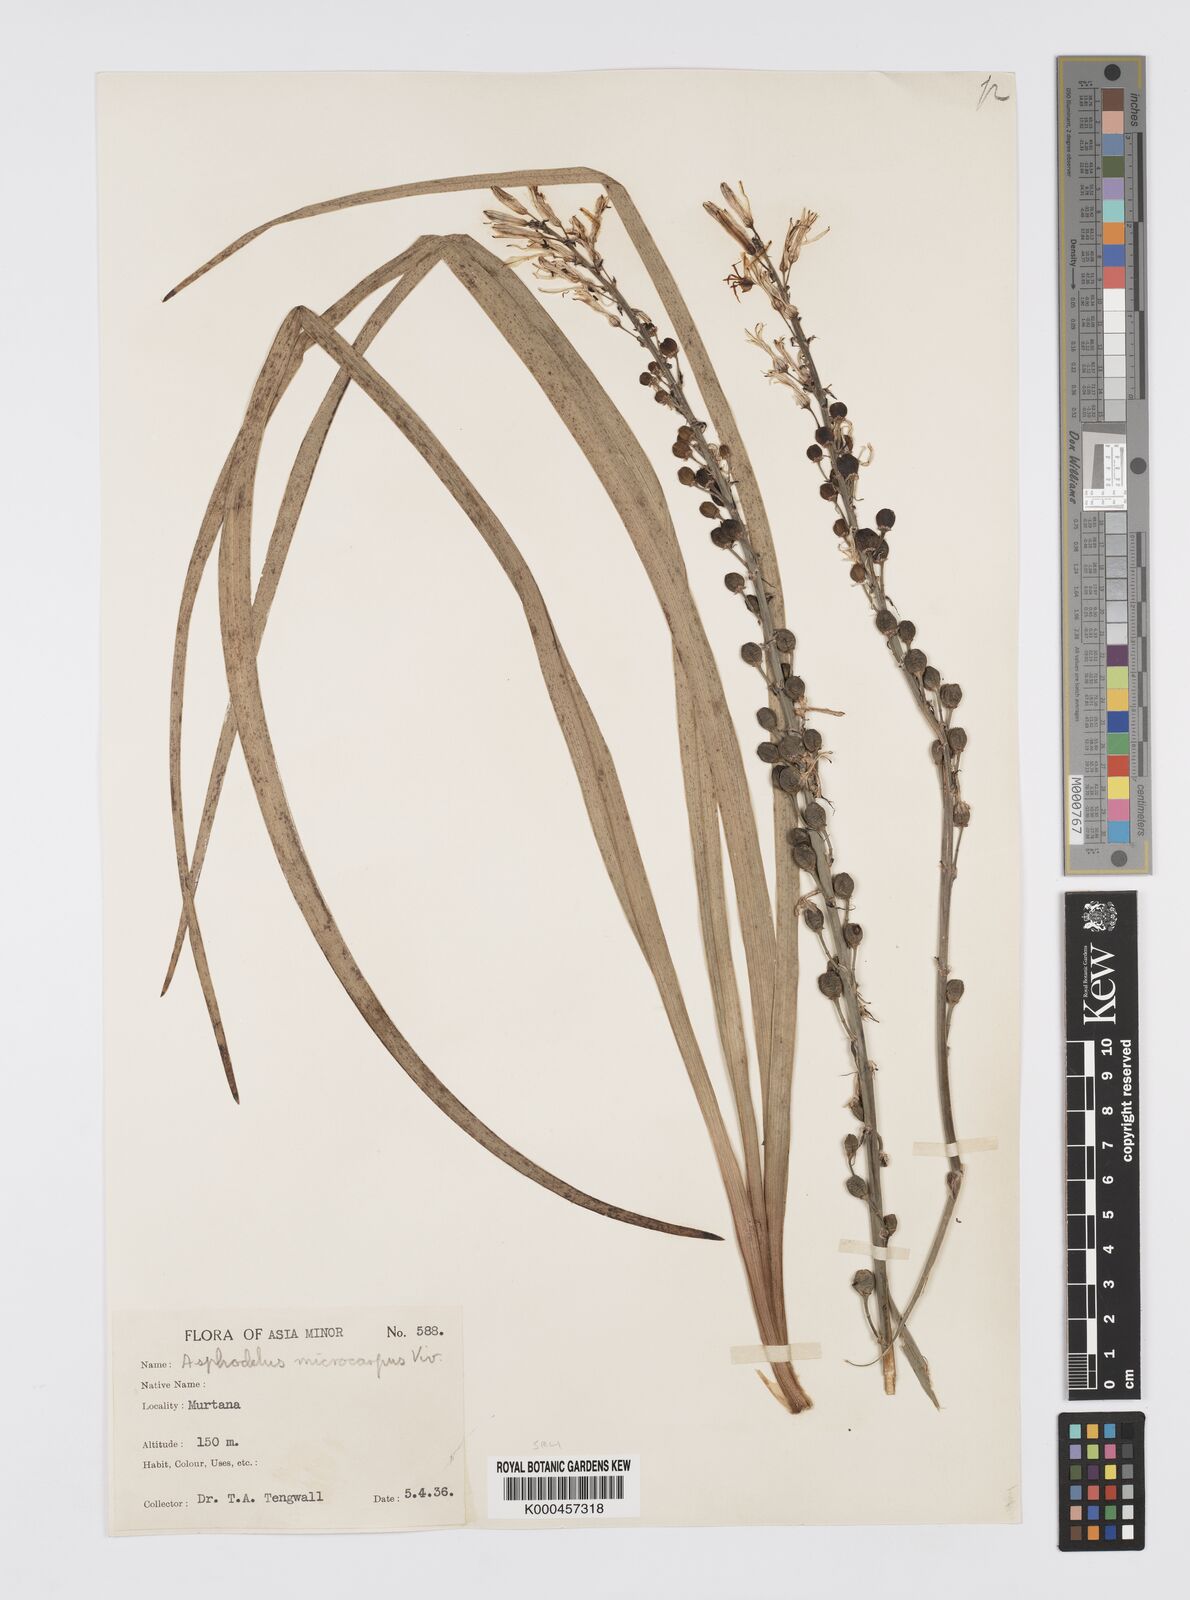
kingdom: Plantae
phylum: Tracheophyta
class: Liliopsida
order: Asparagales
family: Asphodelaceae
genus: Asphodelus
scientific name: Asphodelus aestivus
